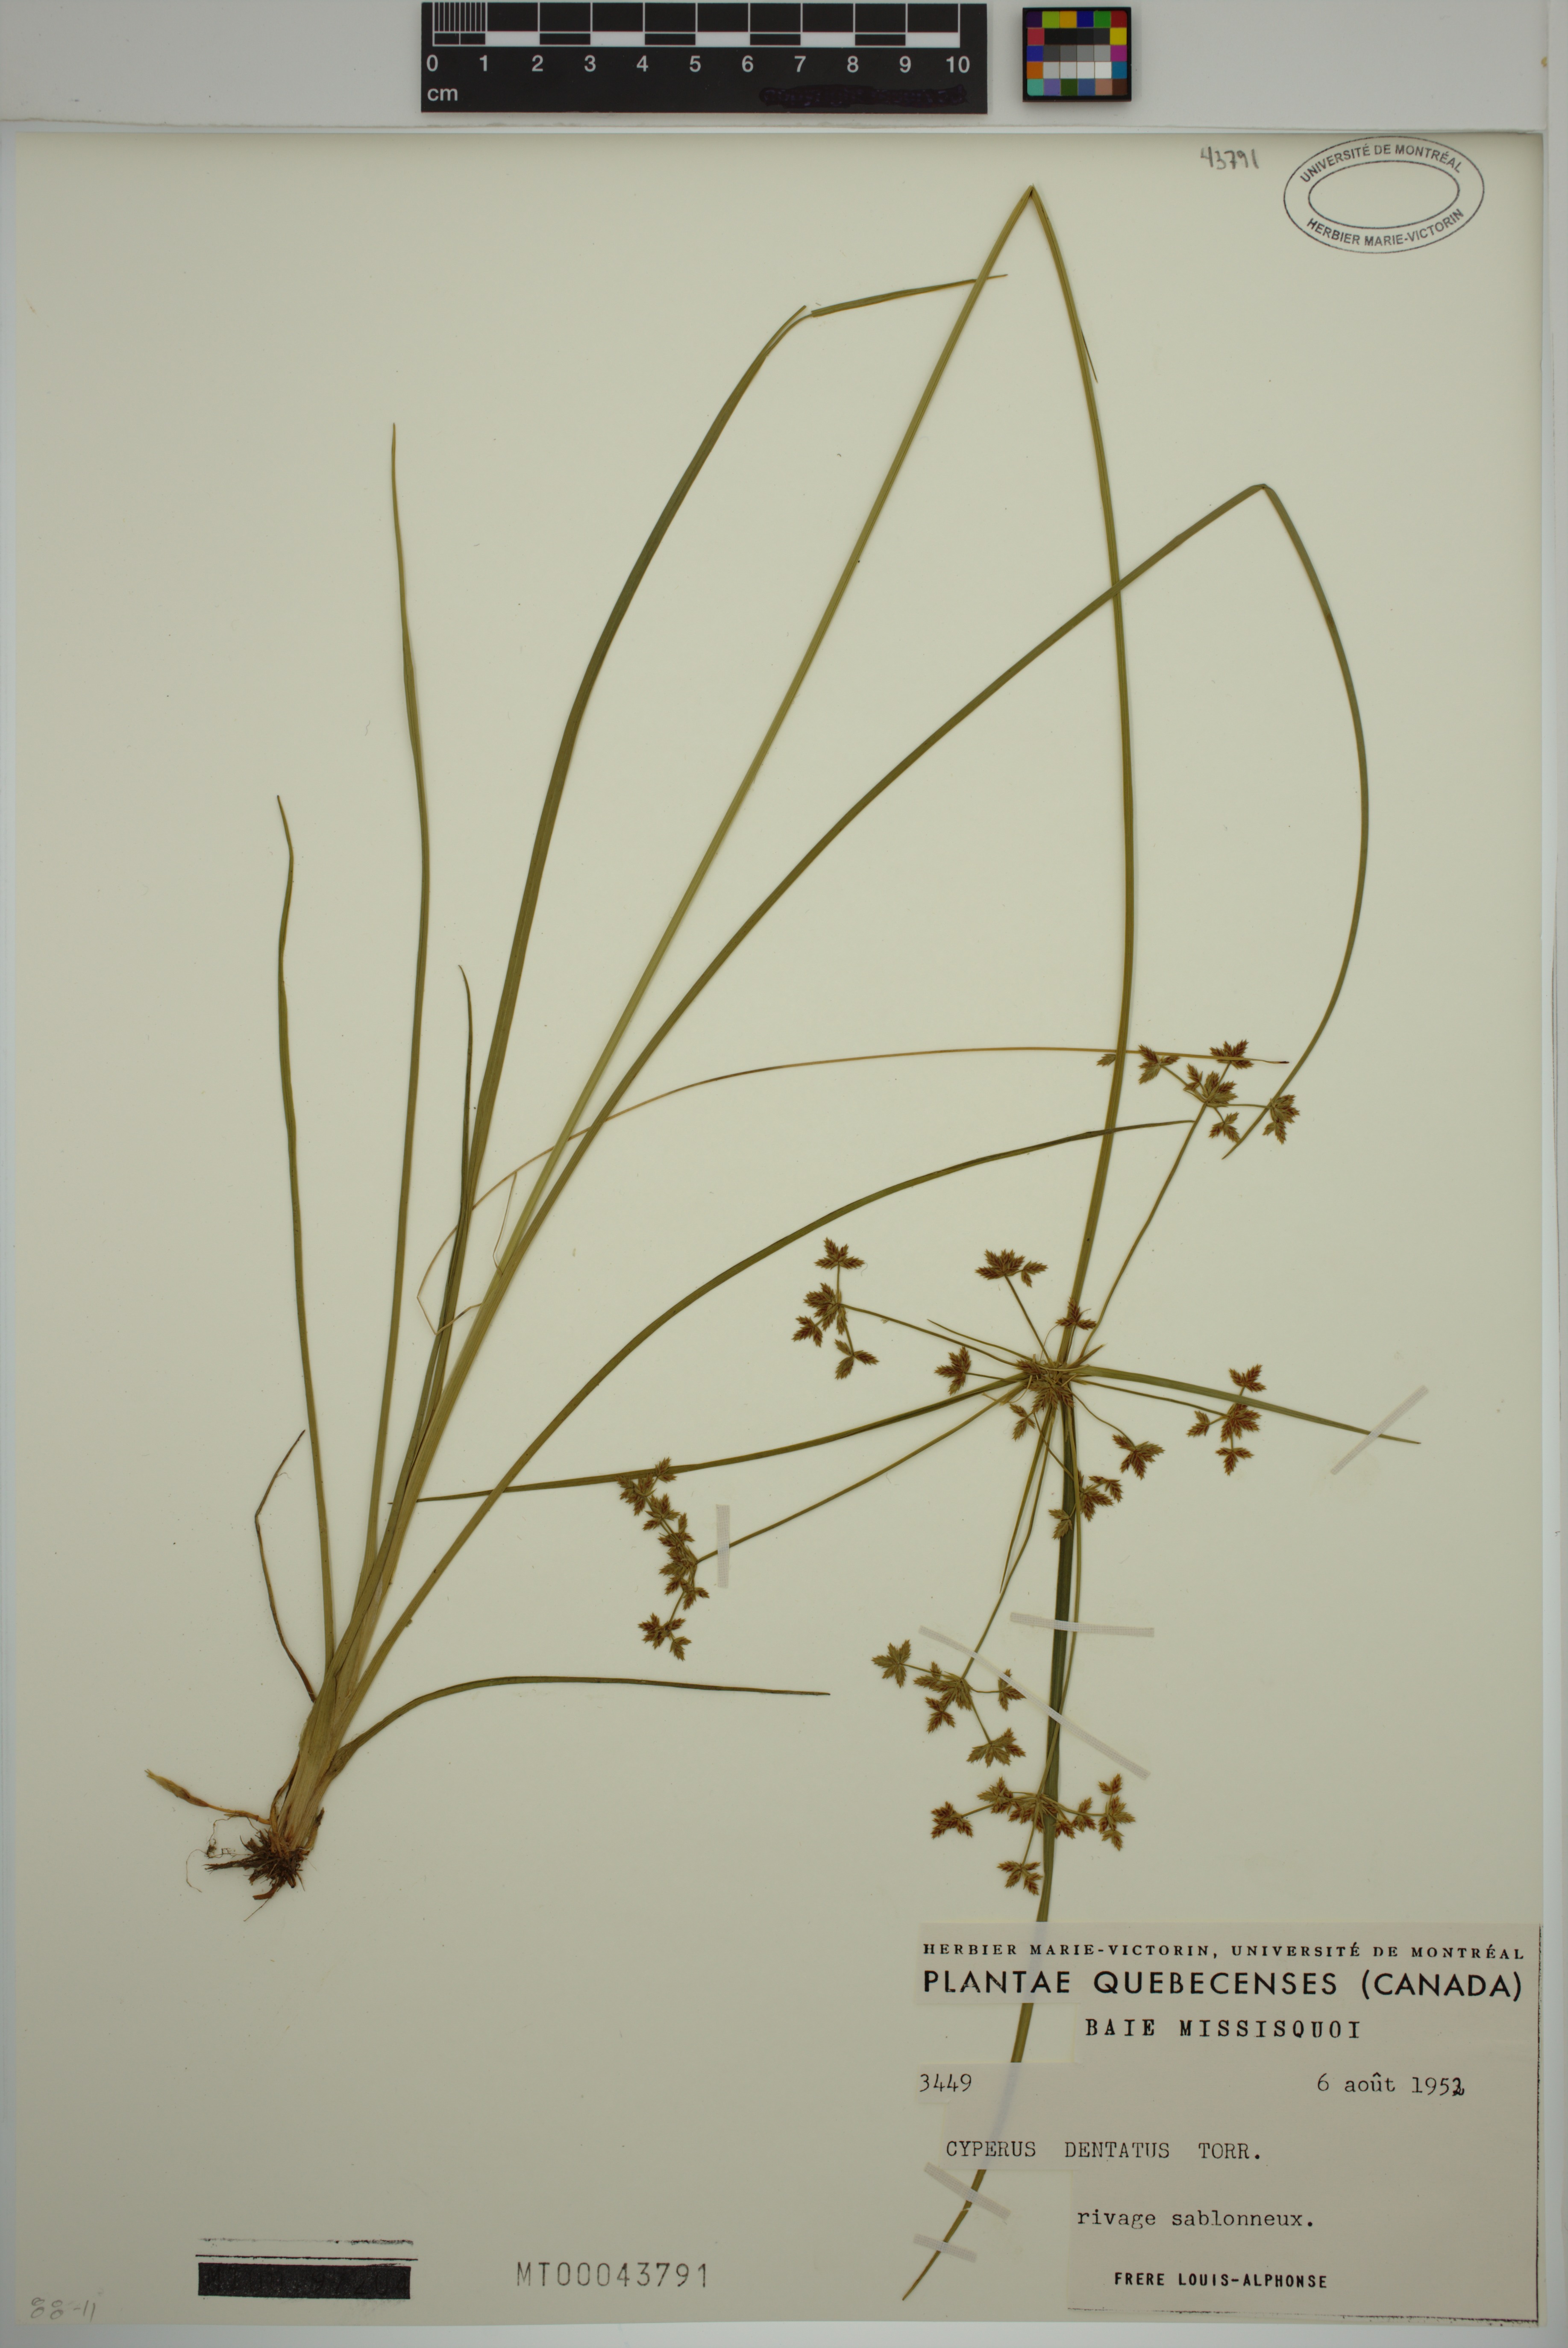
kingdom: Plantae
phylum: Tracheophyta
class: Liliopsida
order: Poales
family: Cyperaceae
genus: Cyperus
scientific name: Cyperus dentatus
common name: Dentate umbrella sedge
